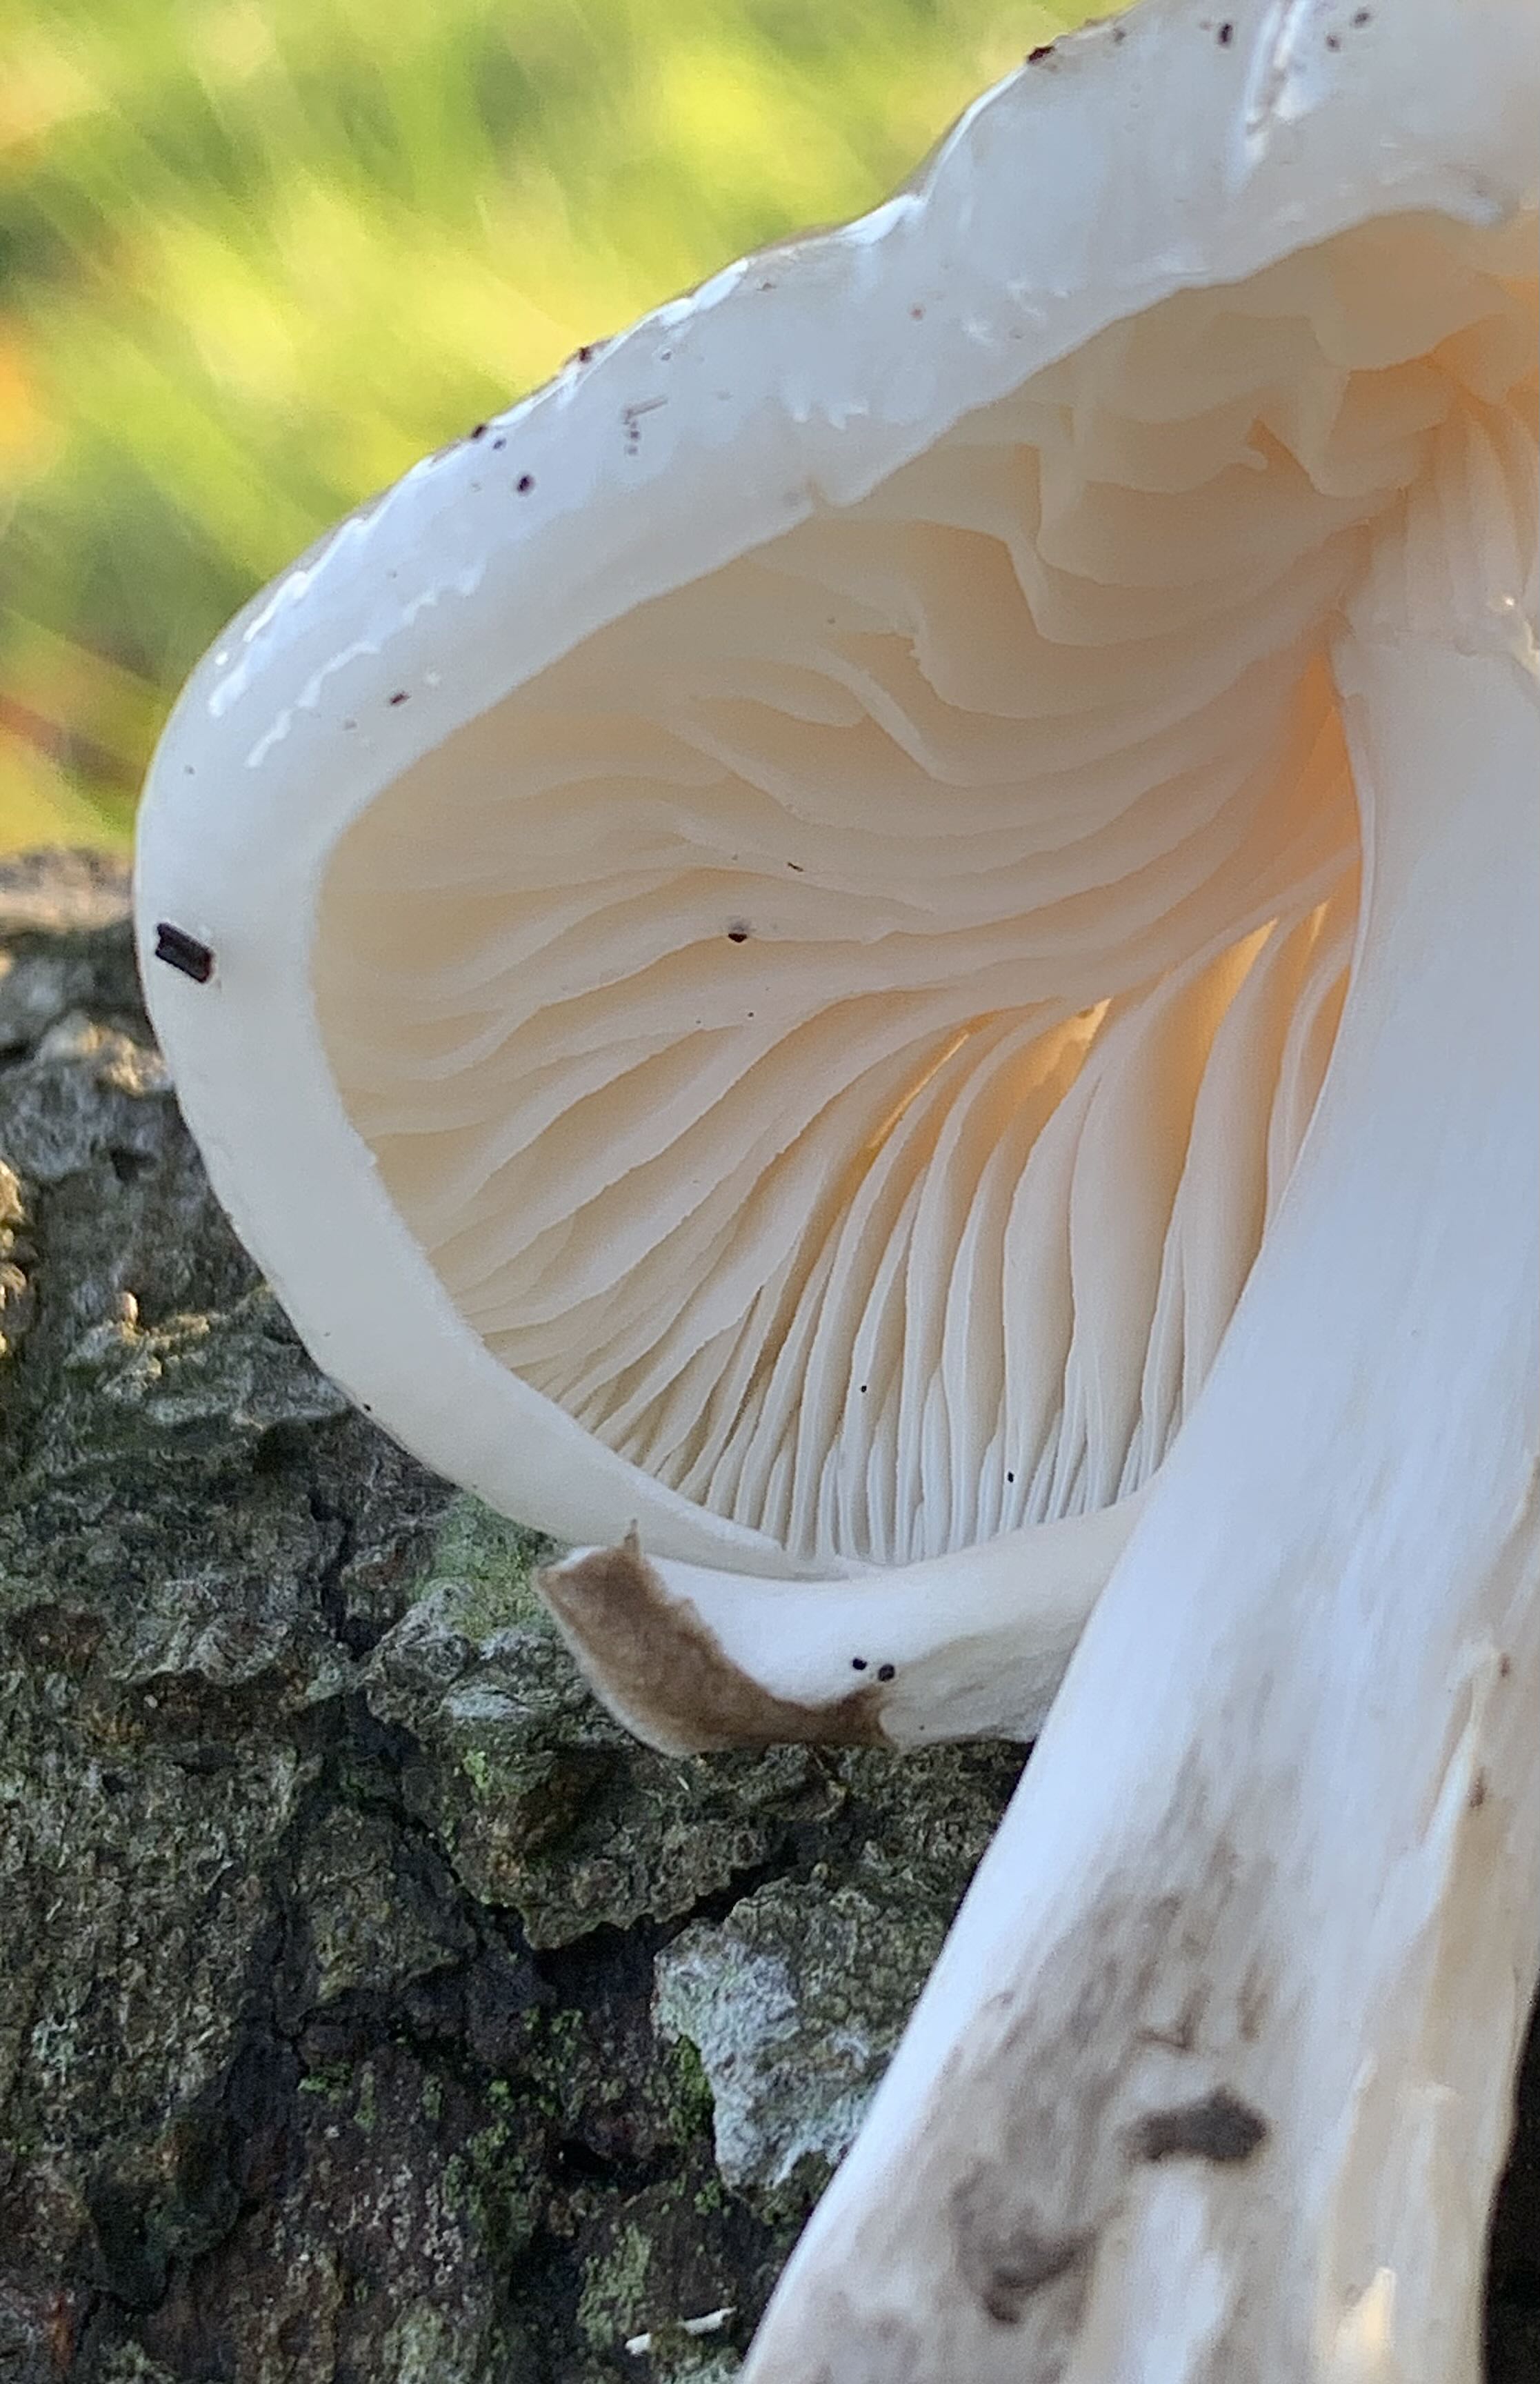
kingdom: Fungi
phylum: Basidiomycota
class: Agaricomycetes
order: Agaricales
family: Physalacriaceae
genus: Mucidula
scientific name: Mucidula mucida
